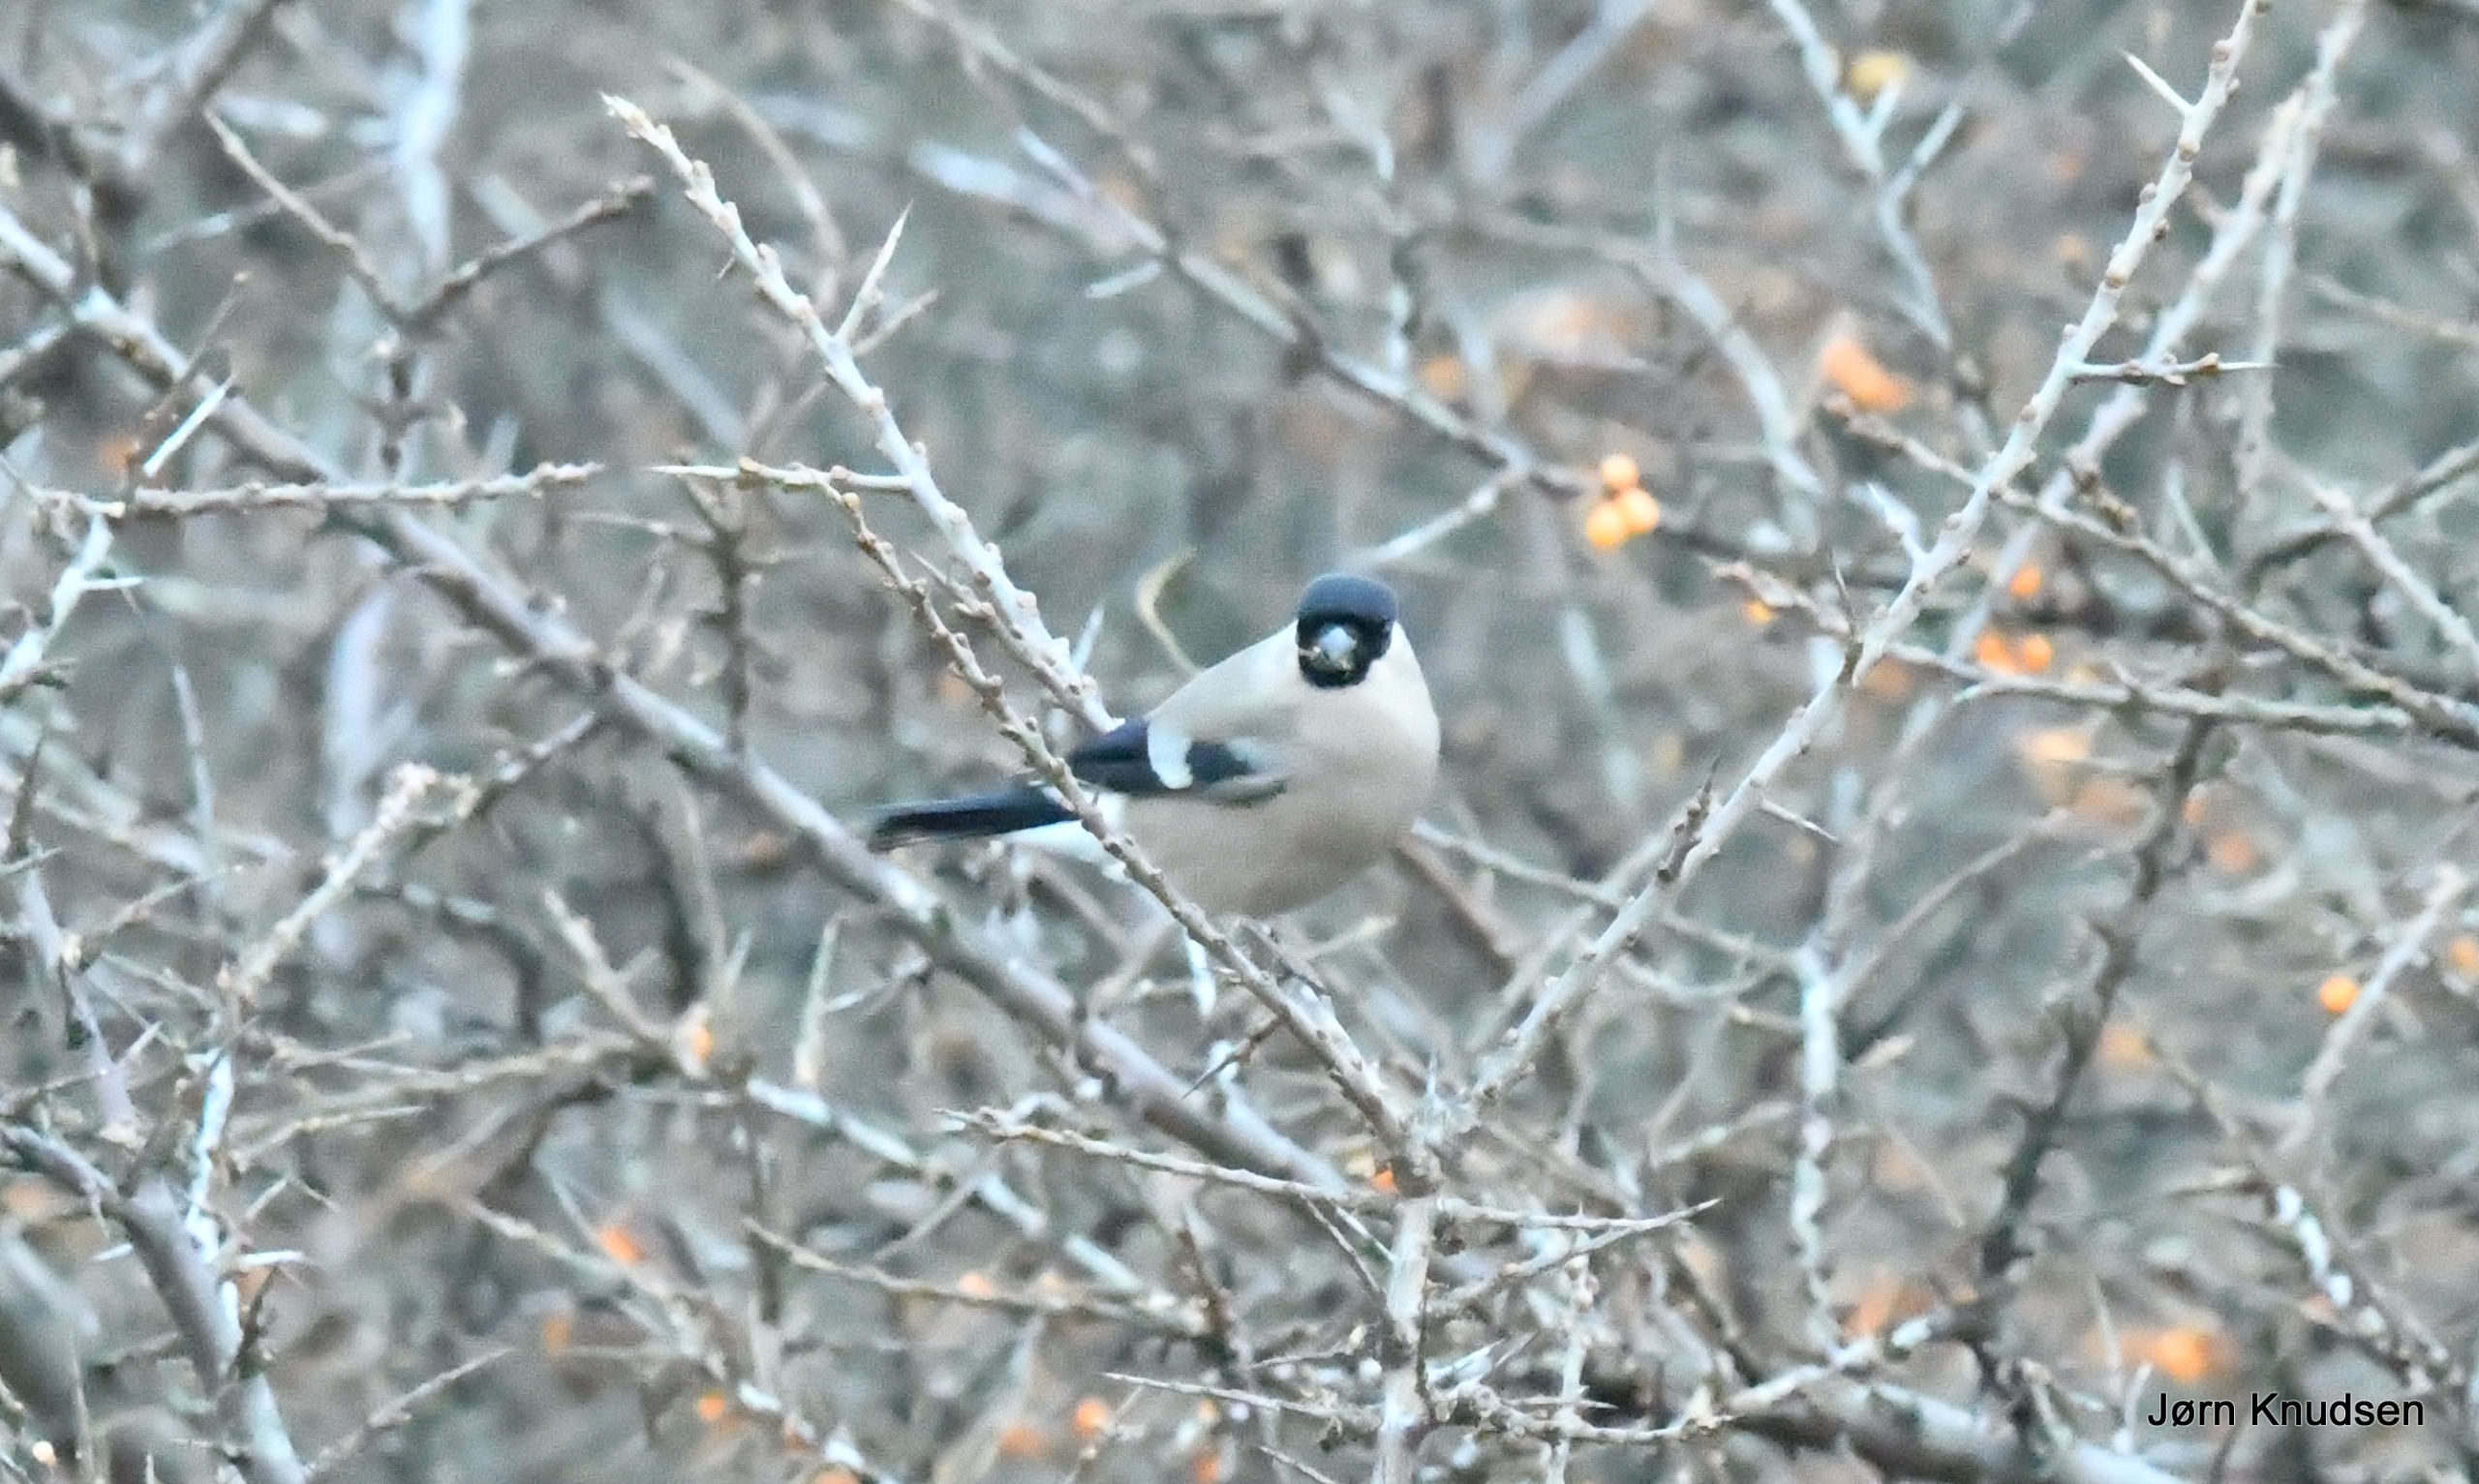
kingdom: Animalia
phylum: Chordata
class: Aves
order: Passeriformes
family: Fringillidae
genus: Pyrrhula
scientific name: Pyrrhula pyrrhula
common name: Dompap
